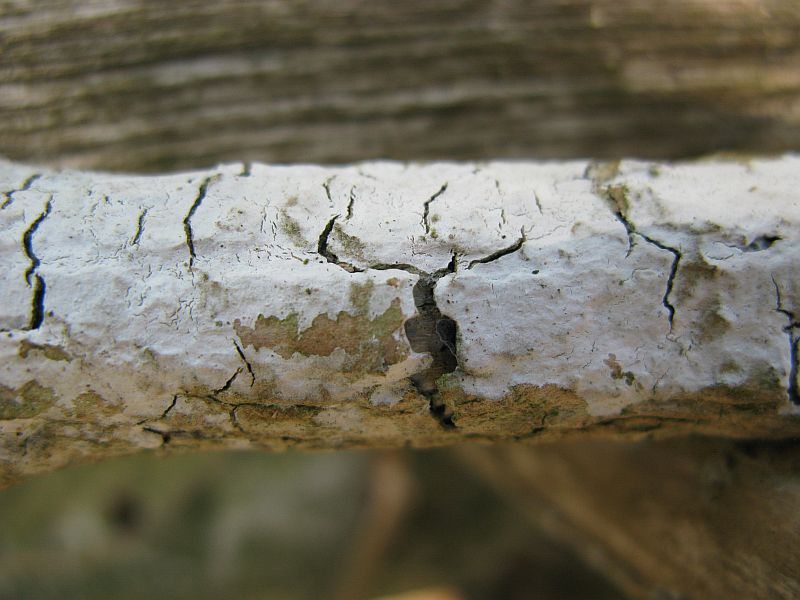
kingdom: Fungi
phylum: Basidiomycota
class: Agaricomycetes
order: Corticiales
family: Corticiaceae
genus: Lyomyces
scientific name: Lyomyces sambuci
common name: almindelig hyldehinde
